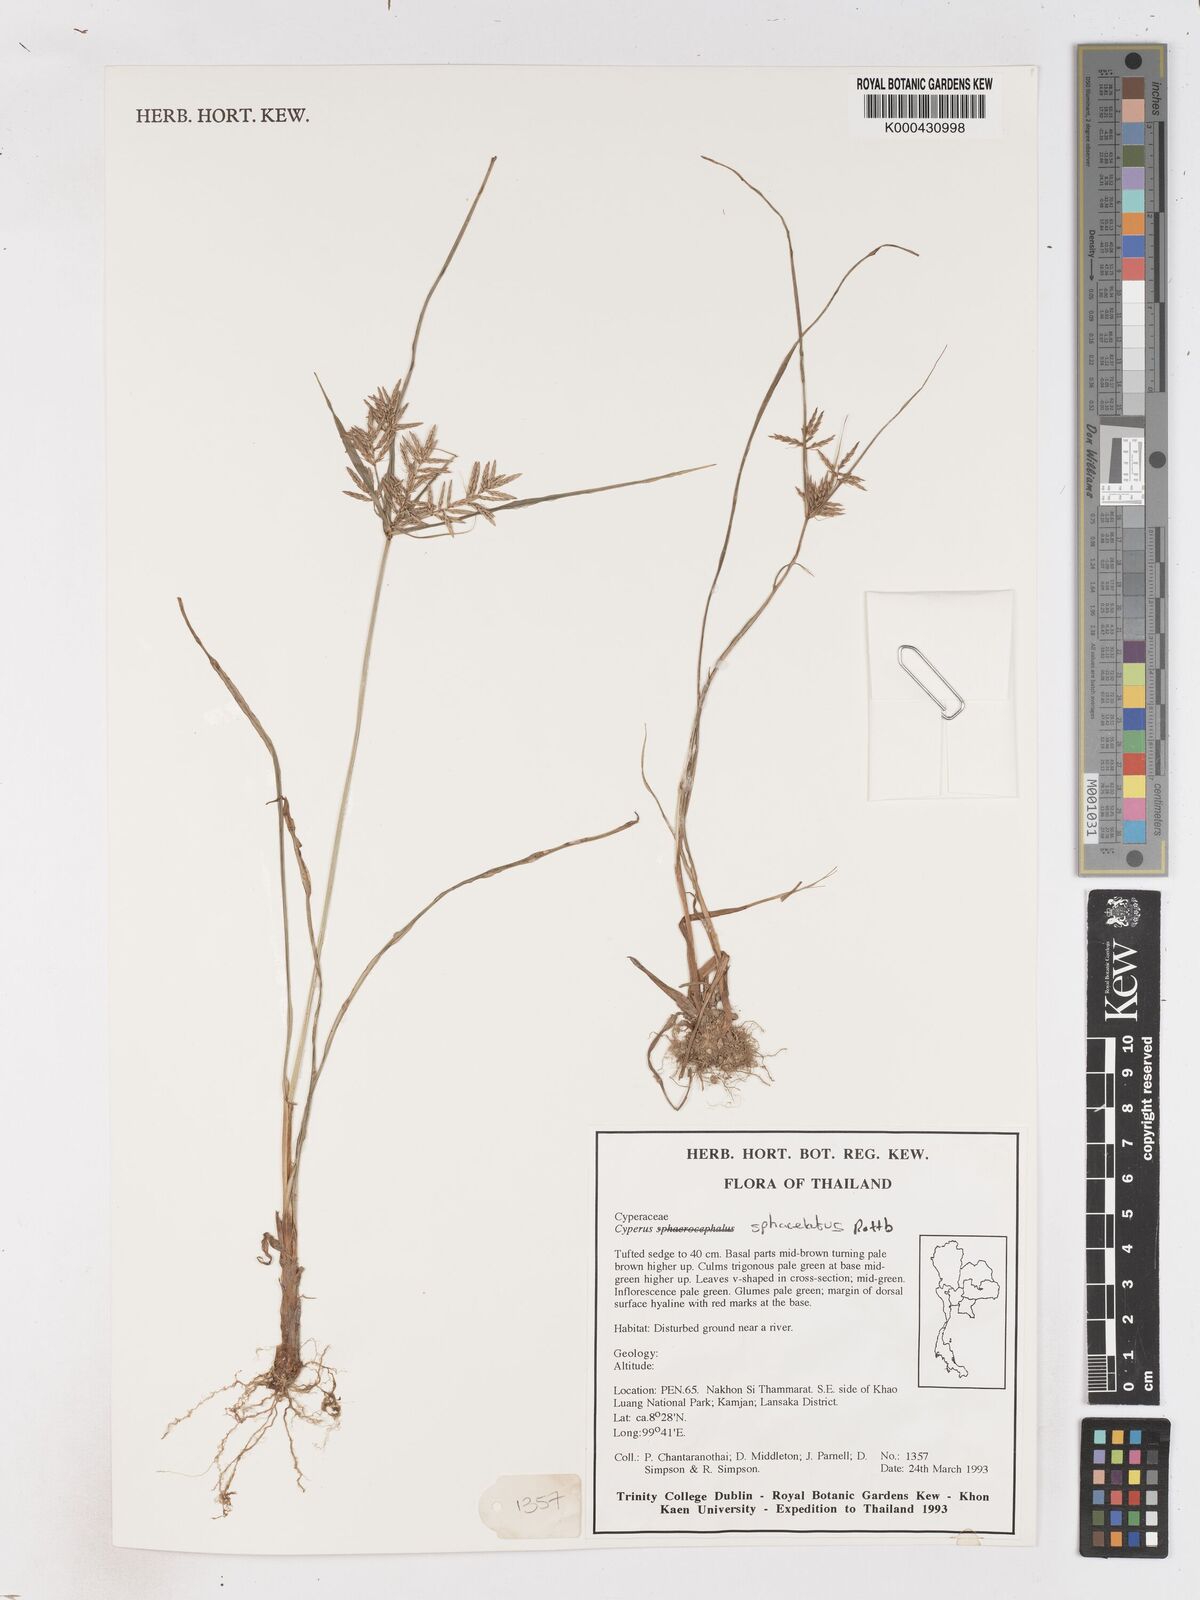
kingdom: Plantae
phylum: Tracheophyta
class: Liliopsida
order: Poales
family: Cyperaceae
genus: Cyperus
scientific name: Cyperus sphacelatus
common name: Roadside flatsedge
